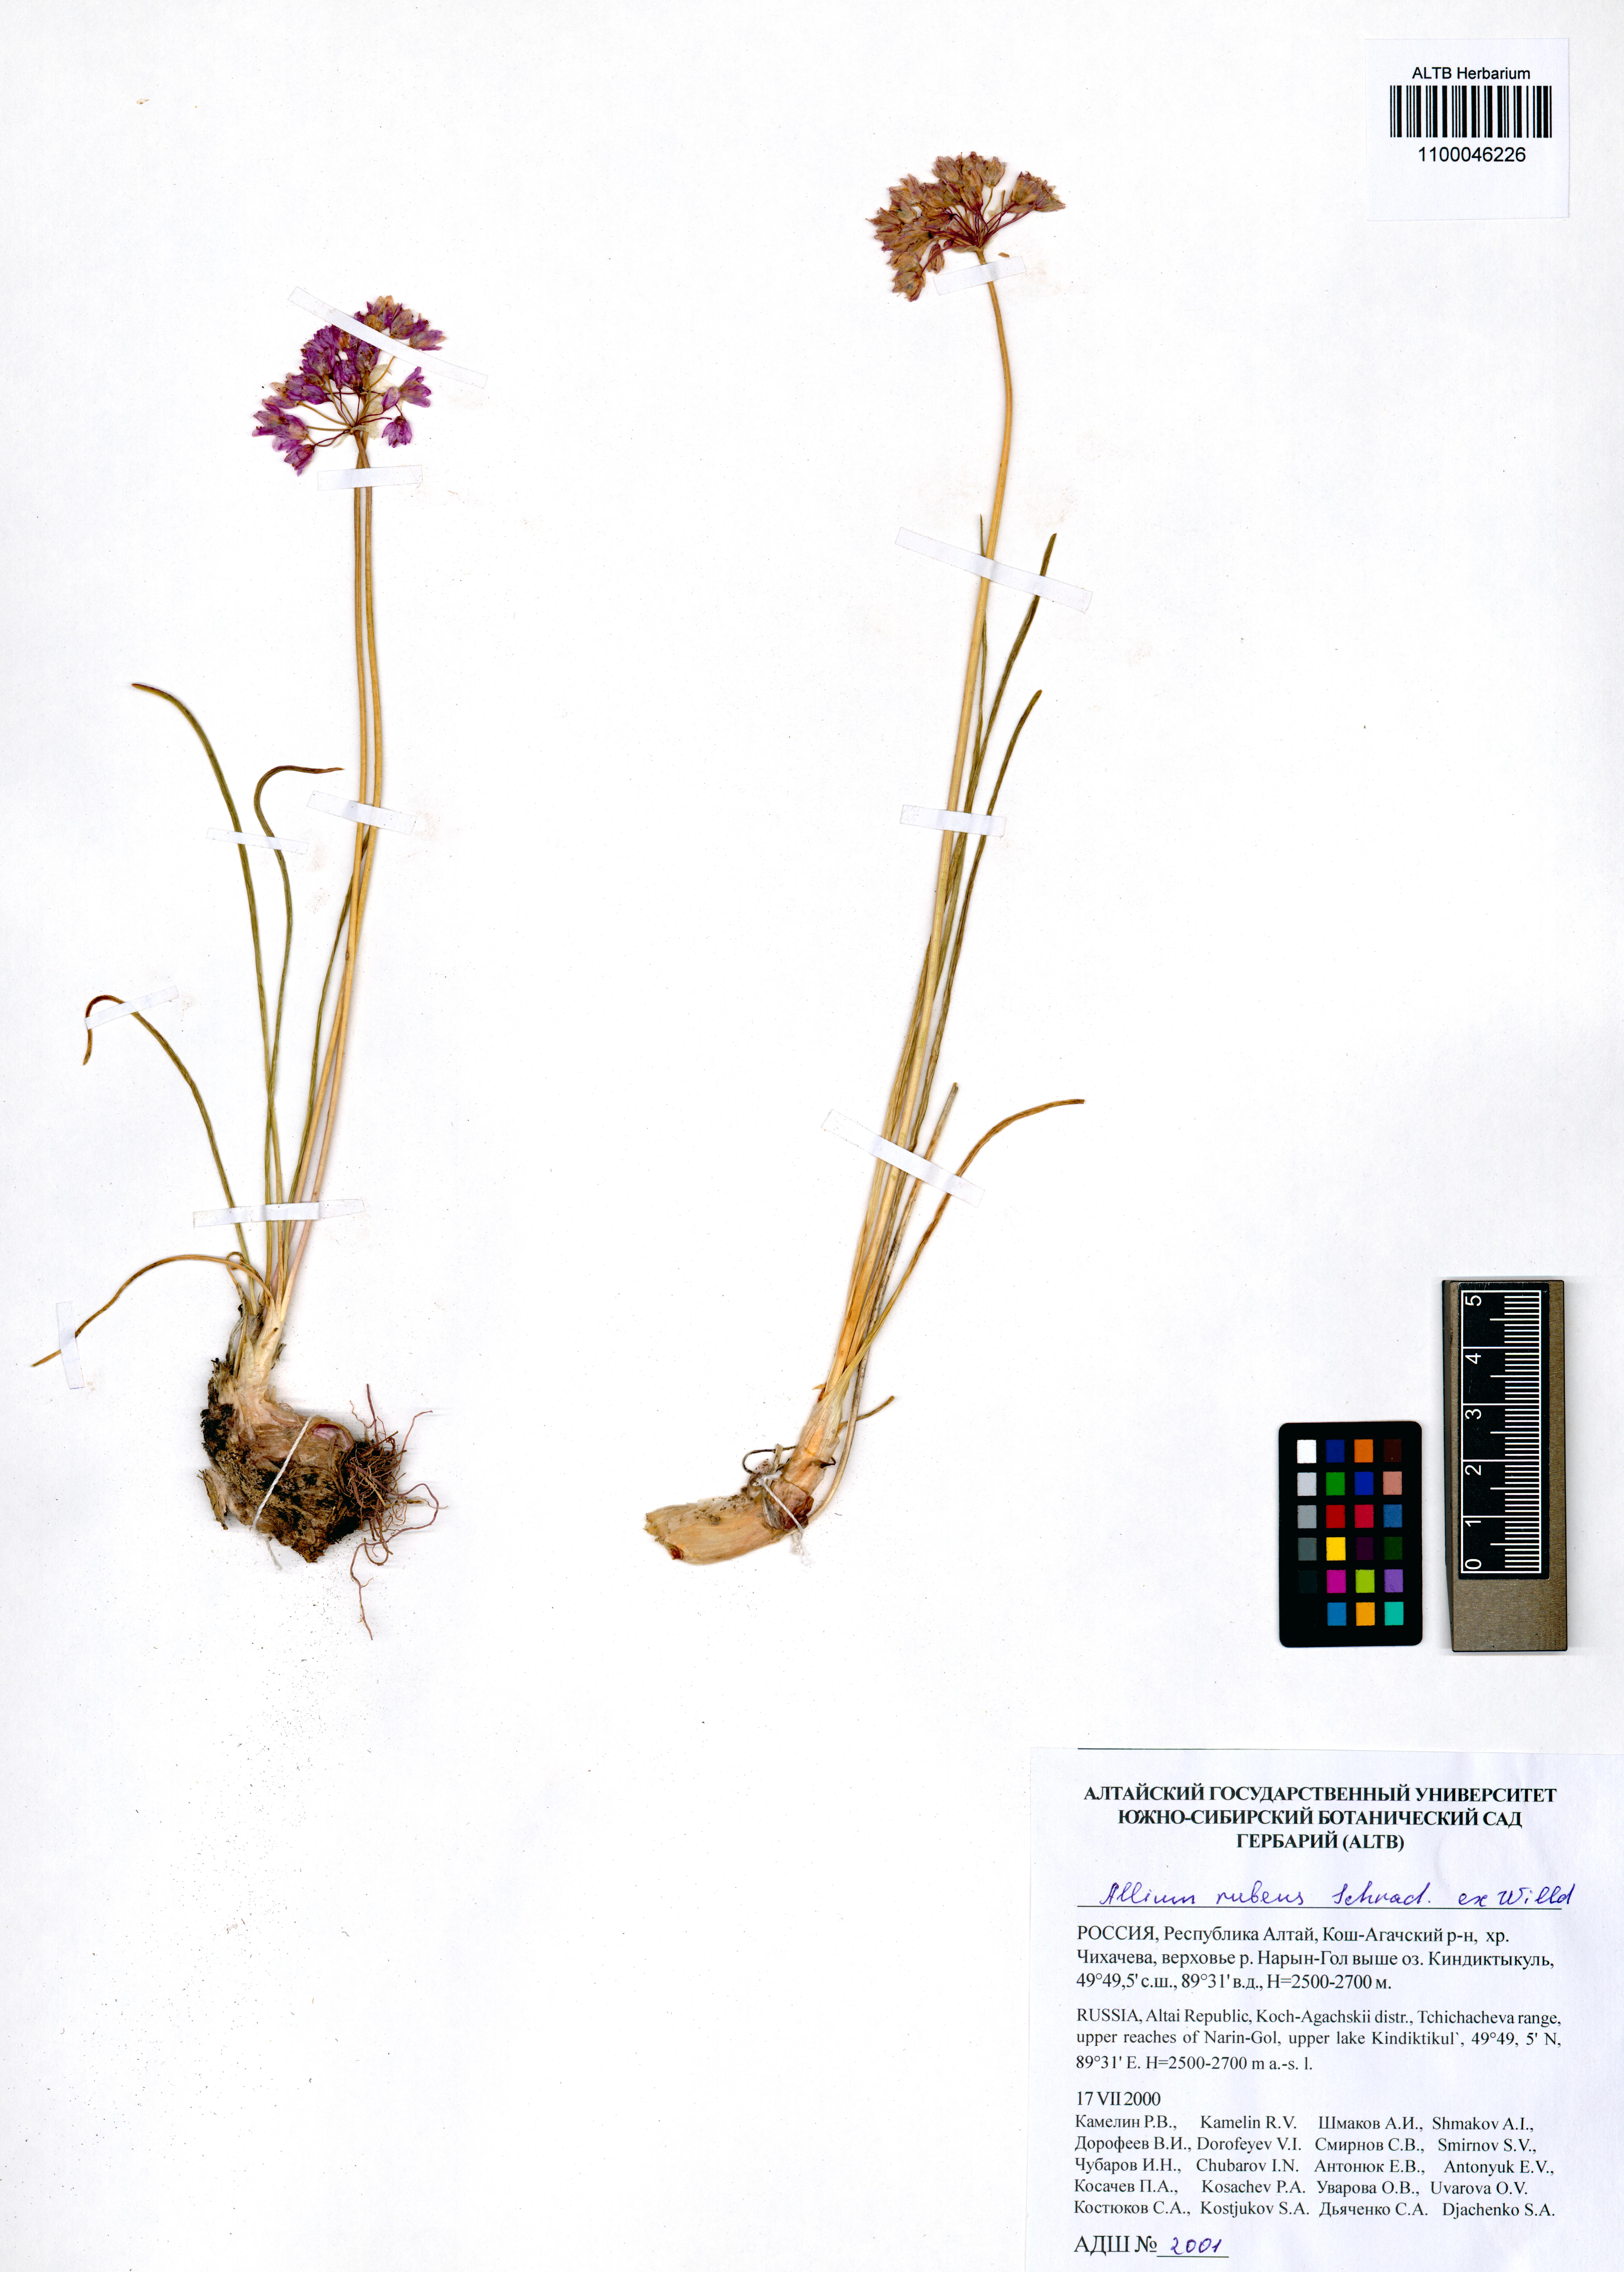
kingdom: Plantae
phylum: Tracheophyta
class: Liliopsida
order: Asparagales
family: Amaryllidaceae
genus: Allium
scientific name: Allium rubens
